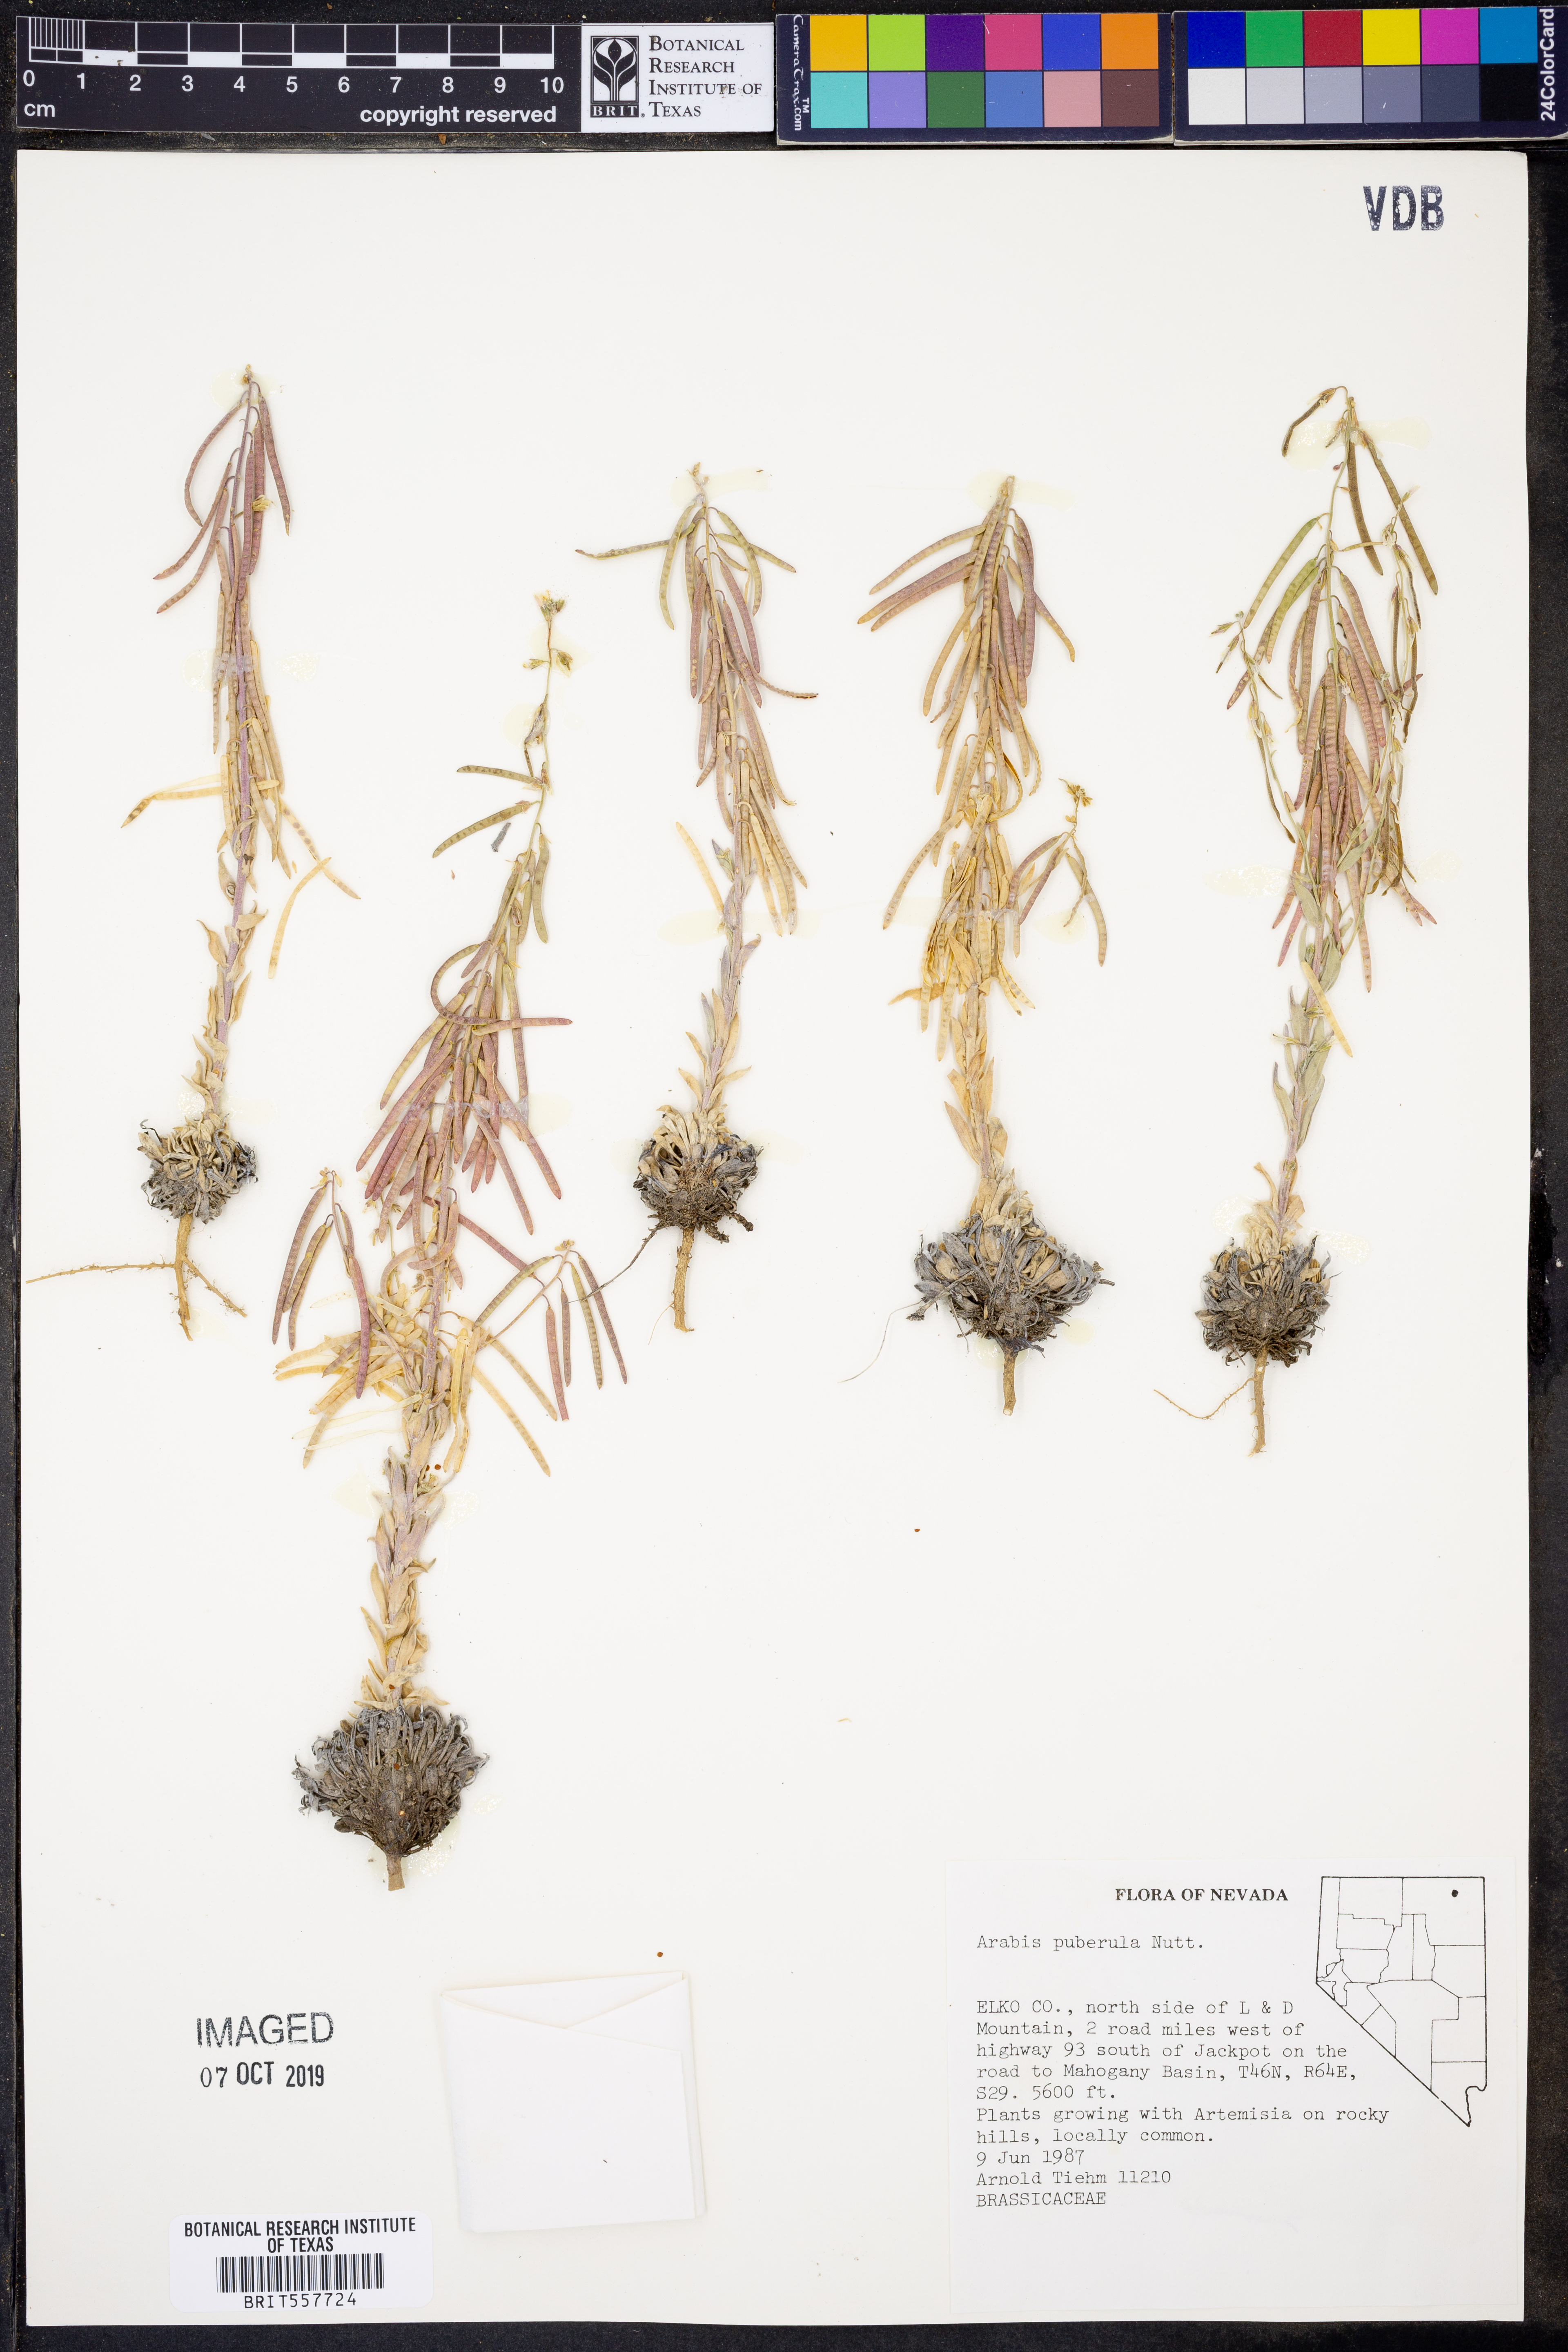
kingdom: Plantae
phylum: Tracheophyta
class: Magnoliopsida
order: Brassicales
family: Brassicaceae
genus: Boechera
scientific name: Boechera puberula
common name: Puberulent rockcress
